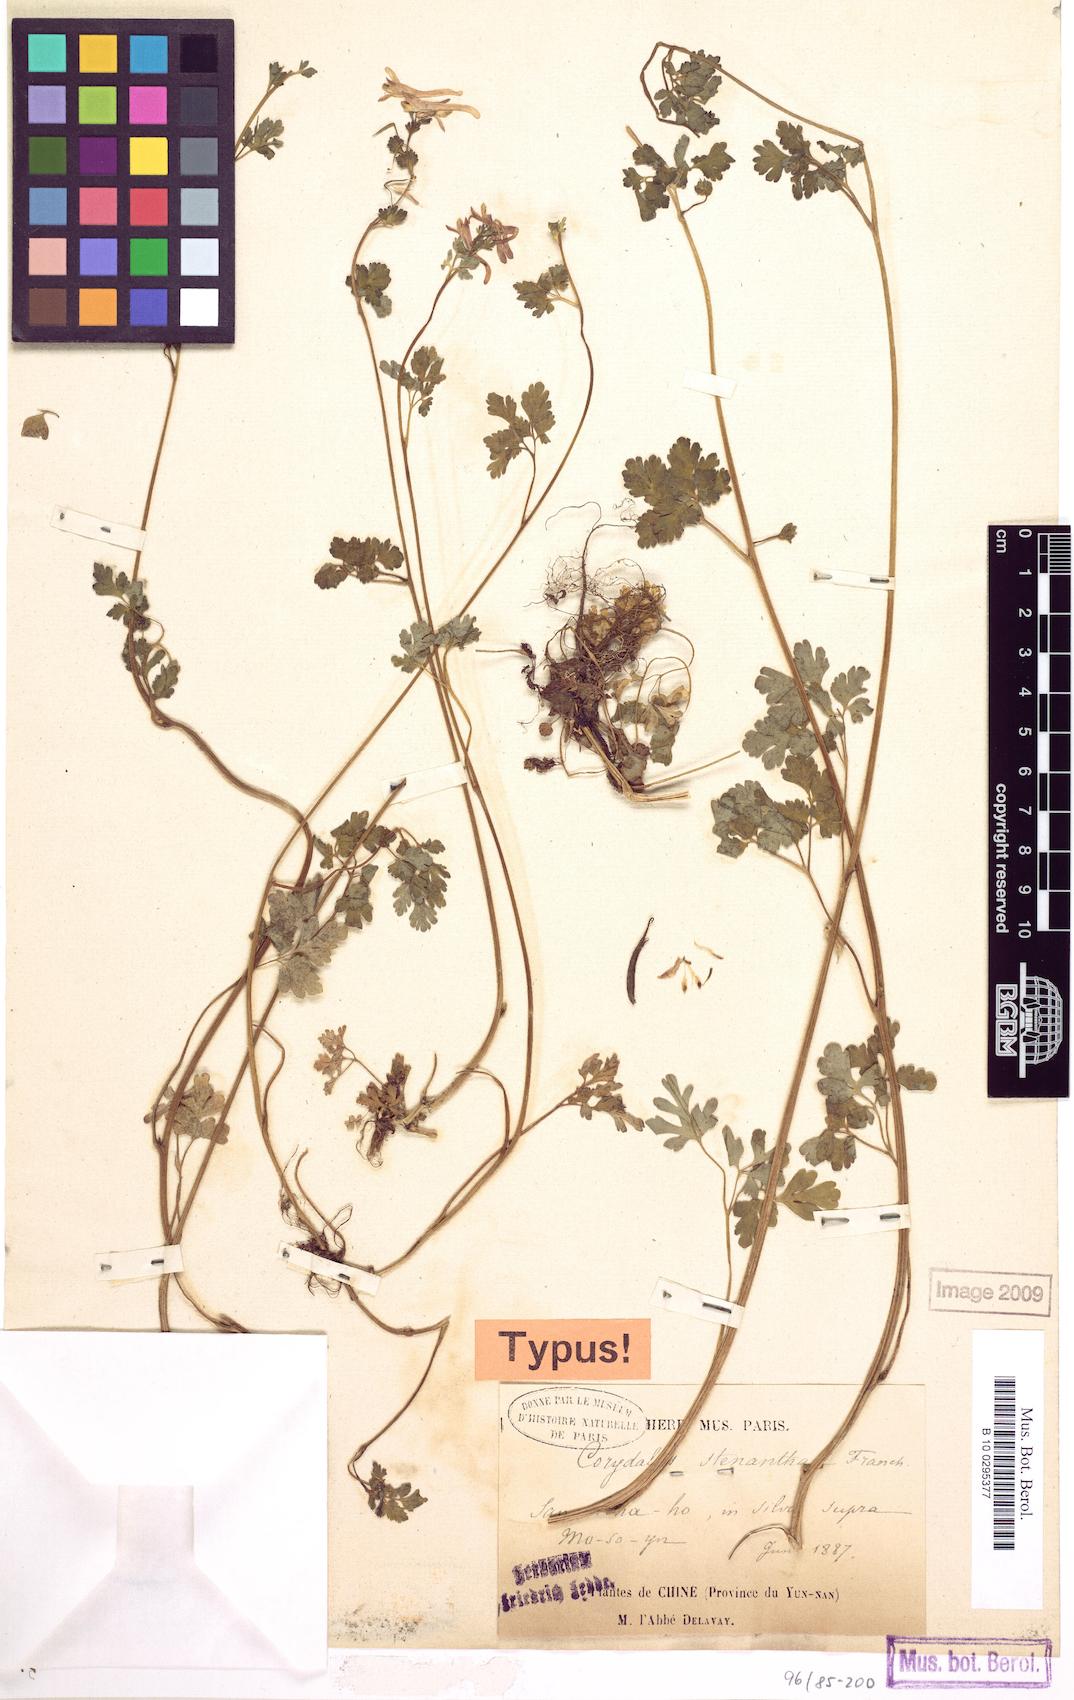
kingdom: Plantae
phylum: Tracheophyta
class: Magnoliopsida
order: Ranunculales
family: Papaveraceae
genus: Corydalis
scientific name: Corydalis stenantha
